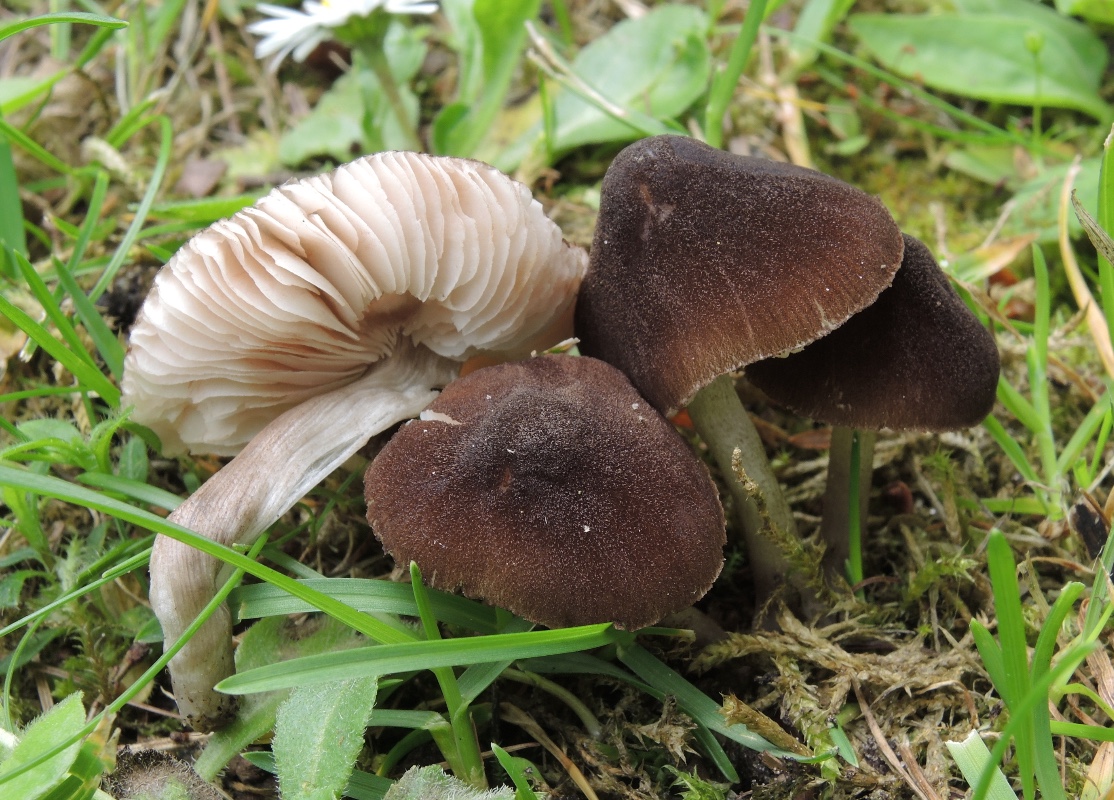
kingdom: Fungi
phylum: Basidiomycota
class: Agaricomycetes
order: Agaricales
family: Pluteaceae
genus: Pluteus
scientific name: Pluteus podospileus
